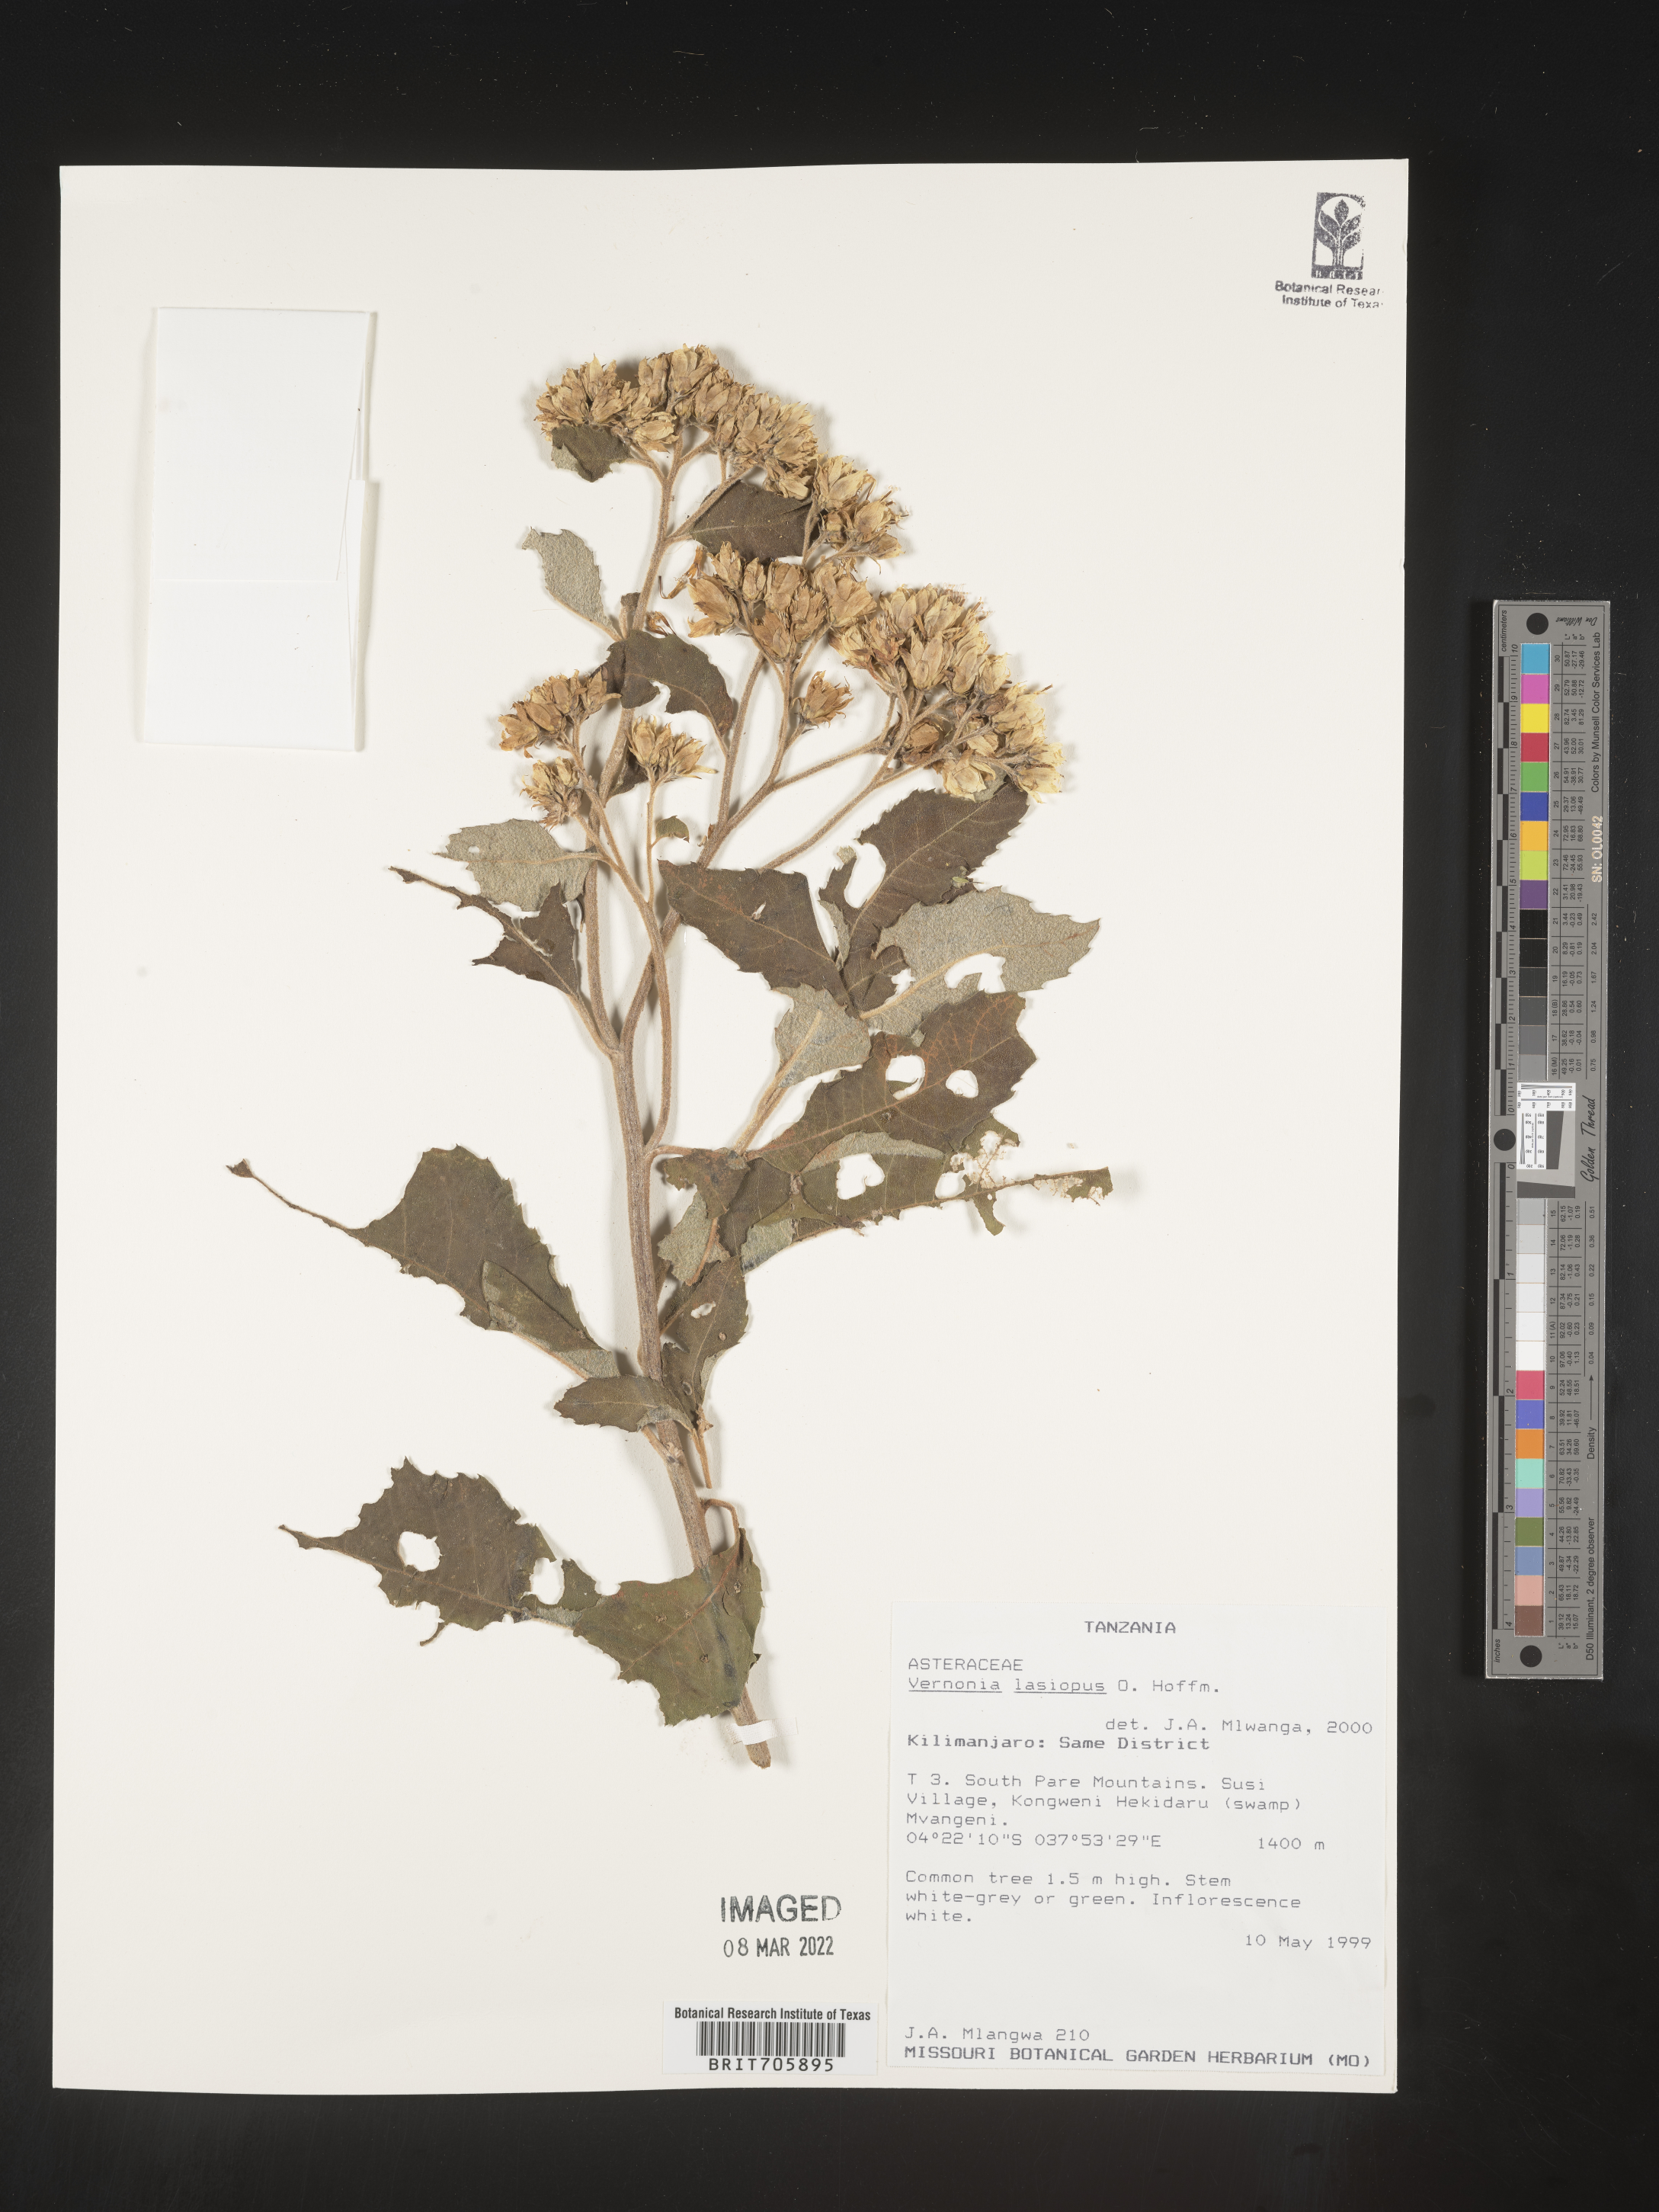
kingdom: Plantae
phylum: Tracheophyta
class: Magnoliopsida
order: Asterales
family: Asteraceae
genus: Vernonia
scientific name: Vernonia
